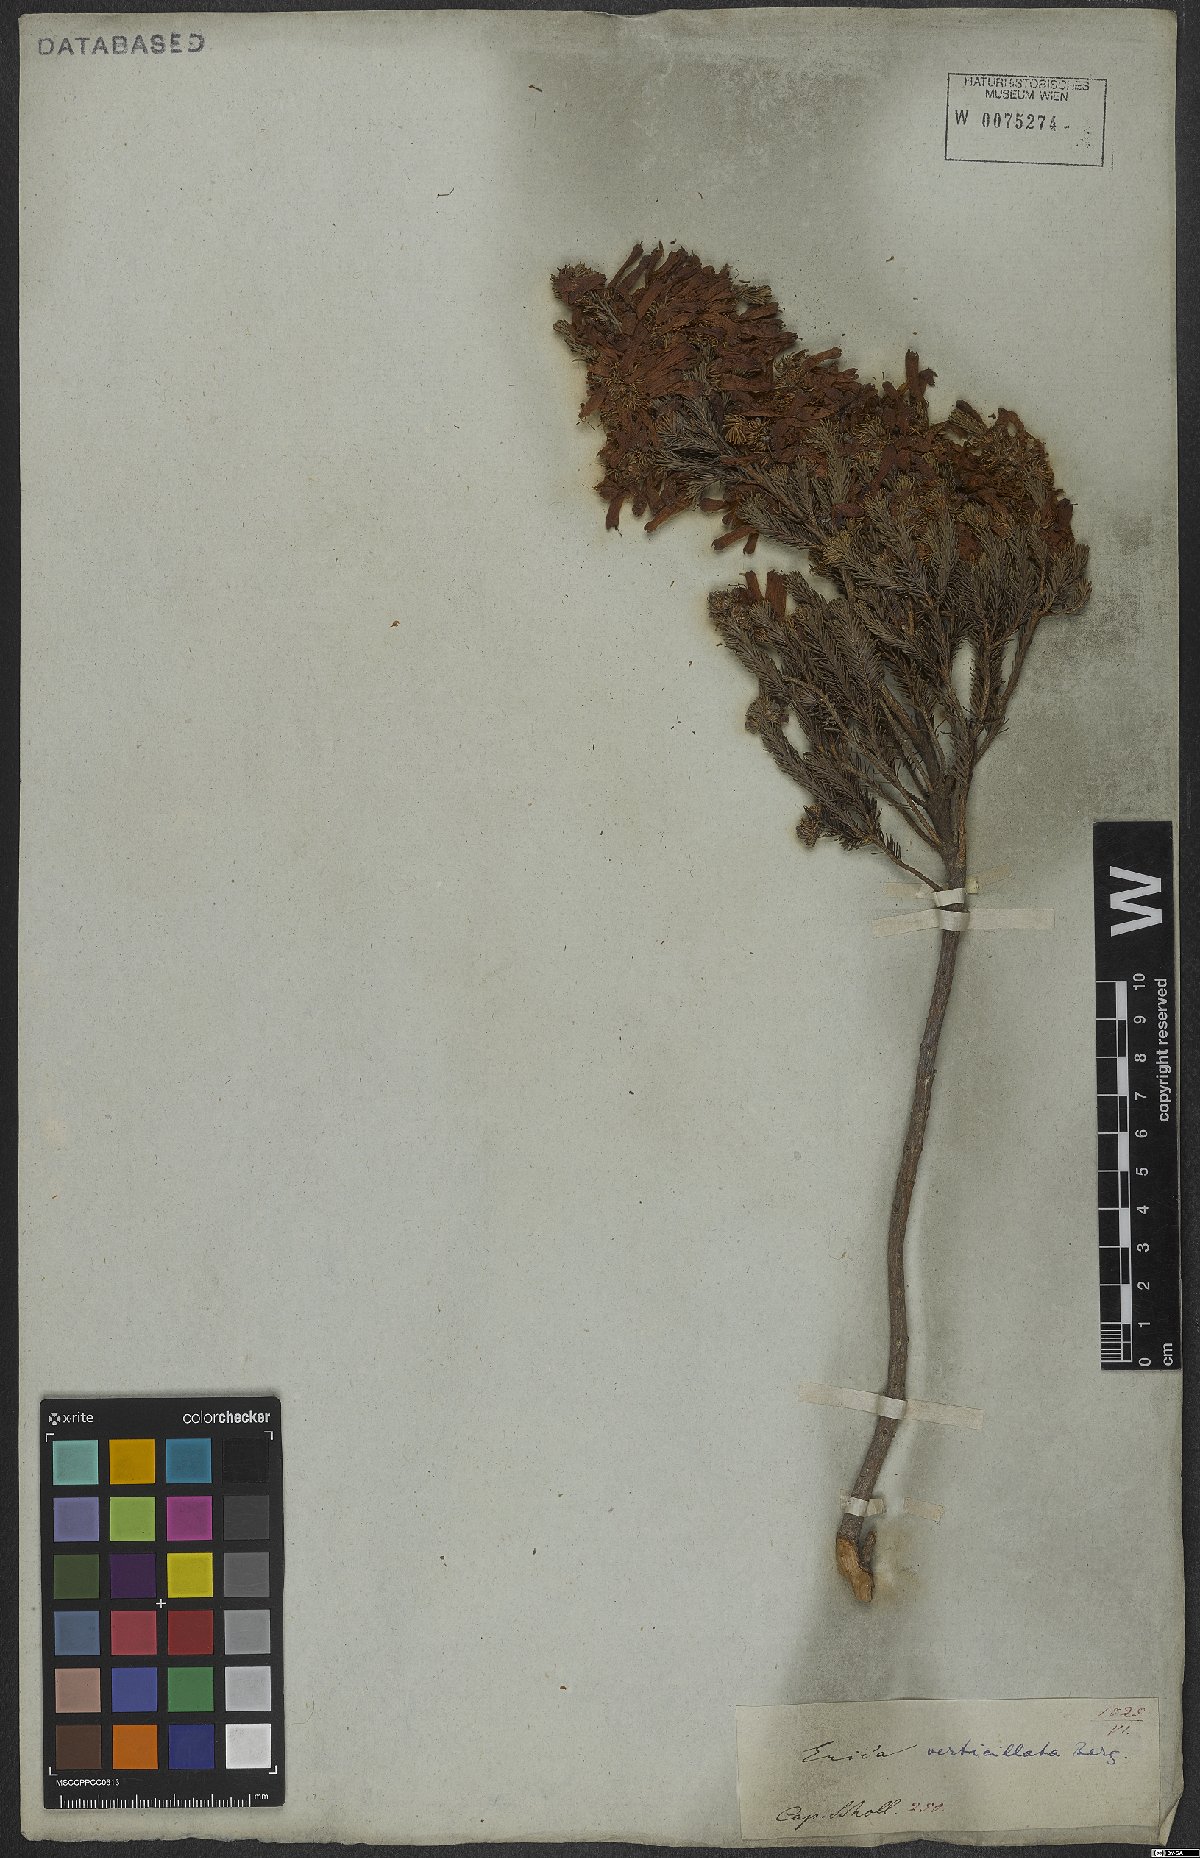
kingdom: Plantae
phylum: Tracheophyta
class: Magnoliopsida
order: Ericales
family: Ericaceae
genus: Erica
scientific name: Erica verticillata
